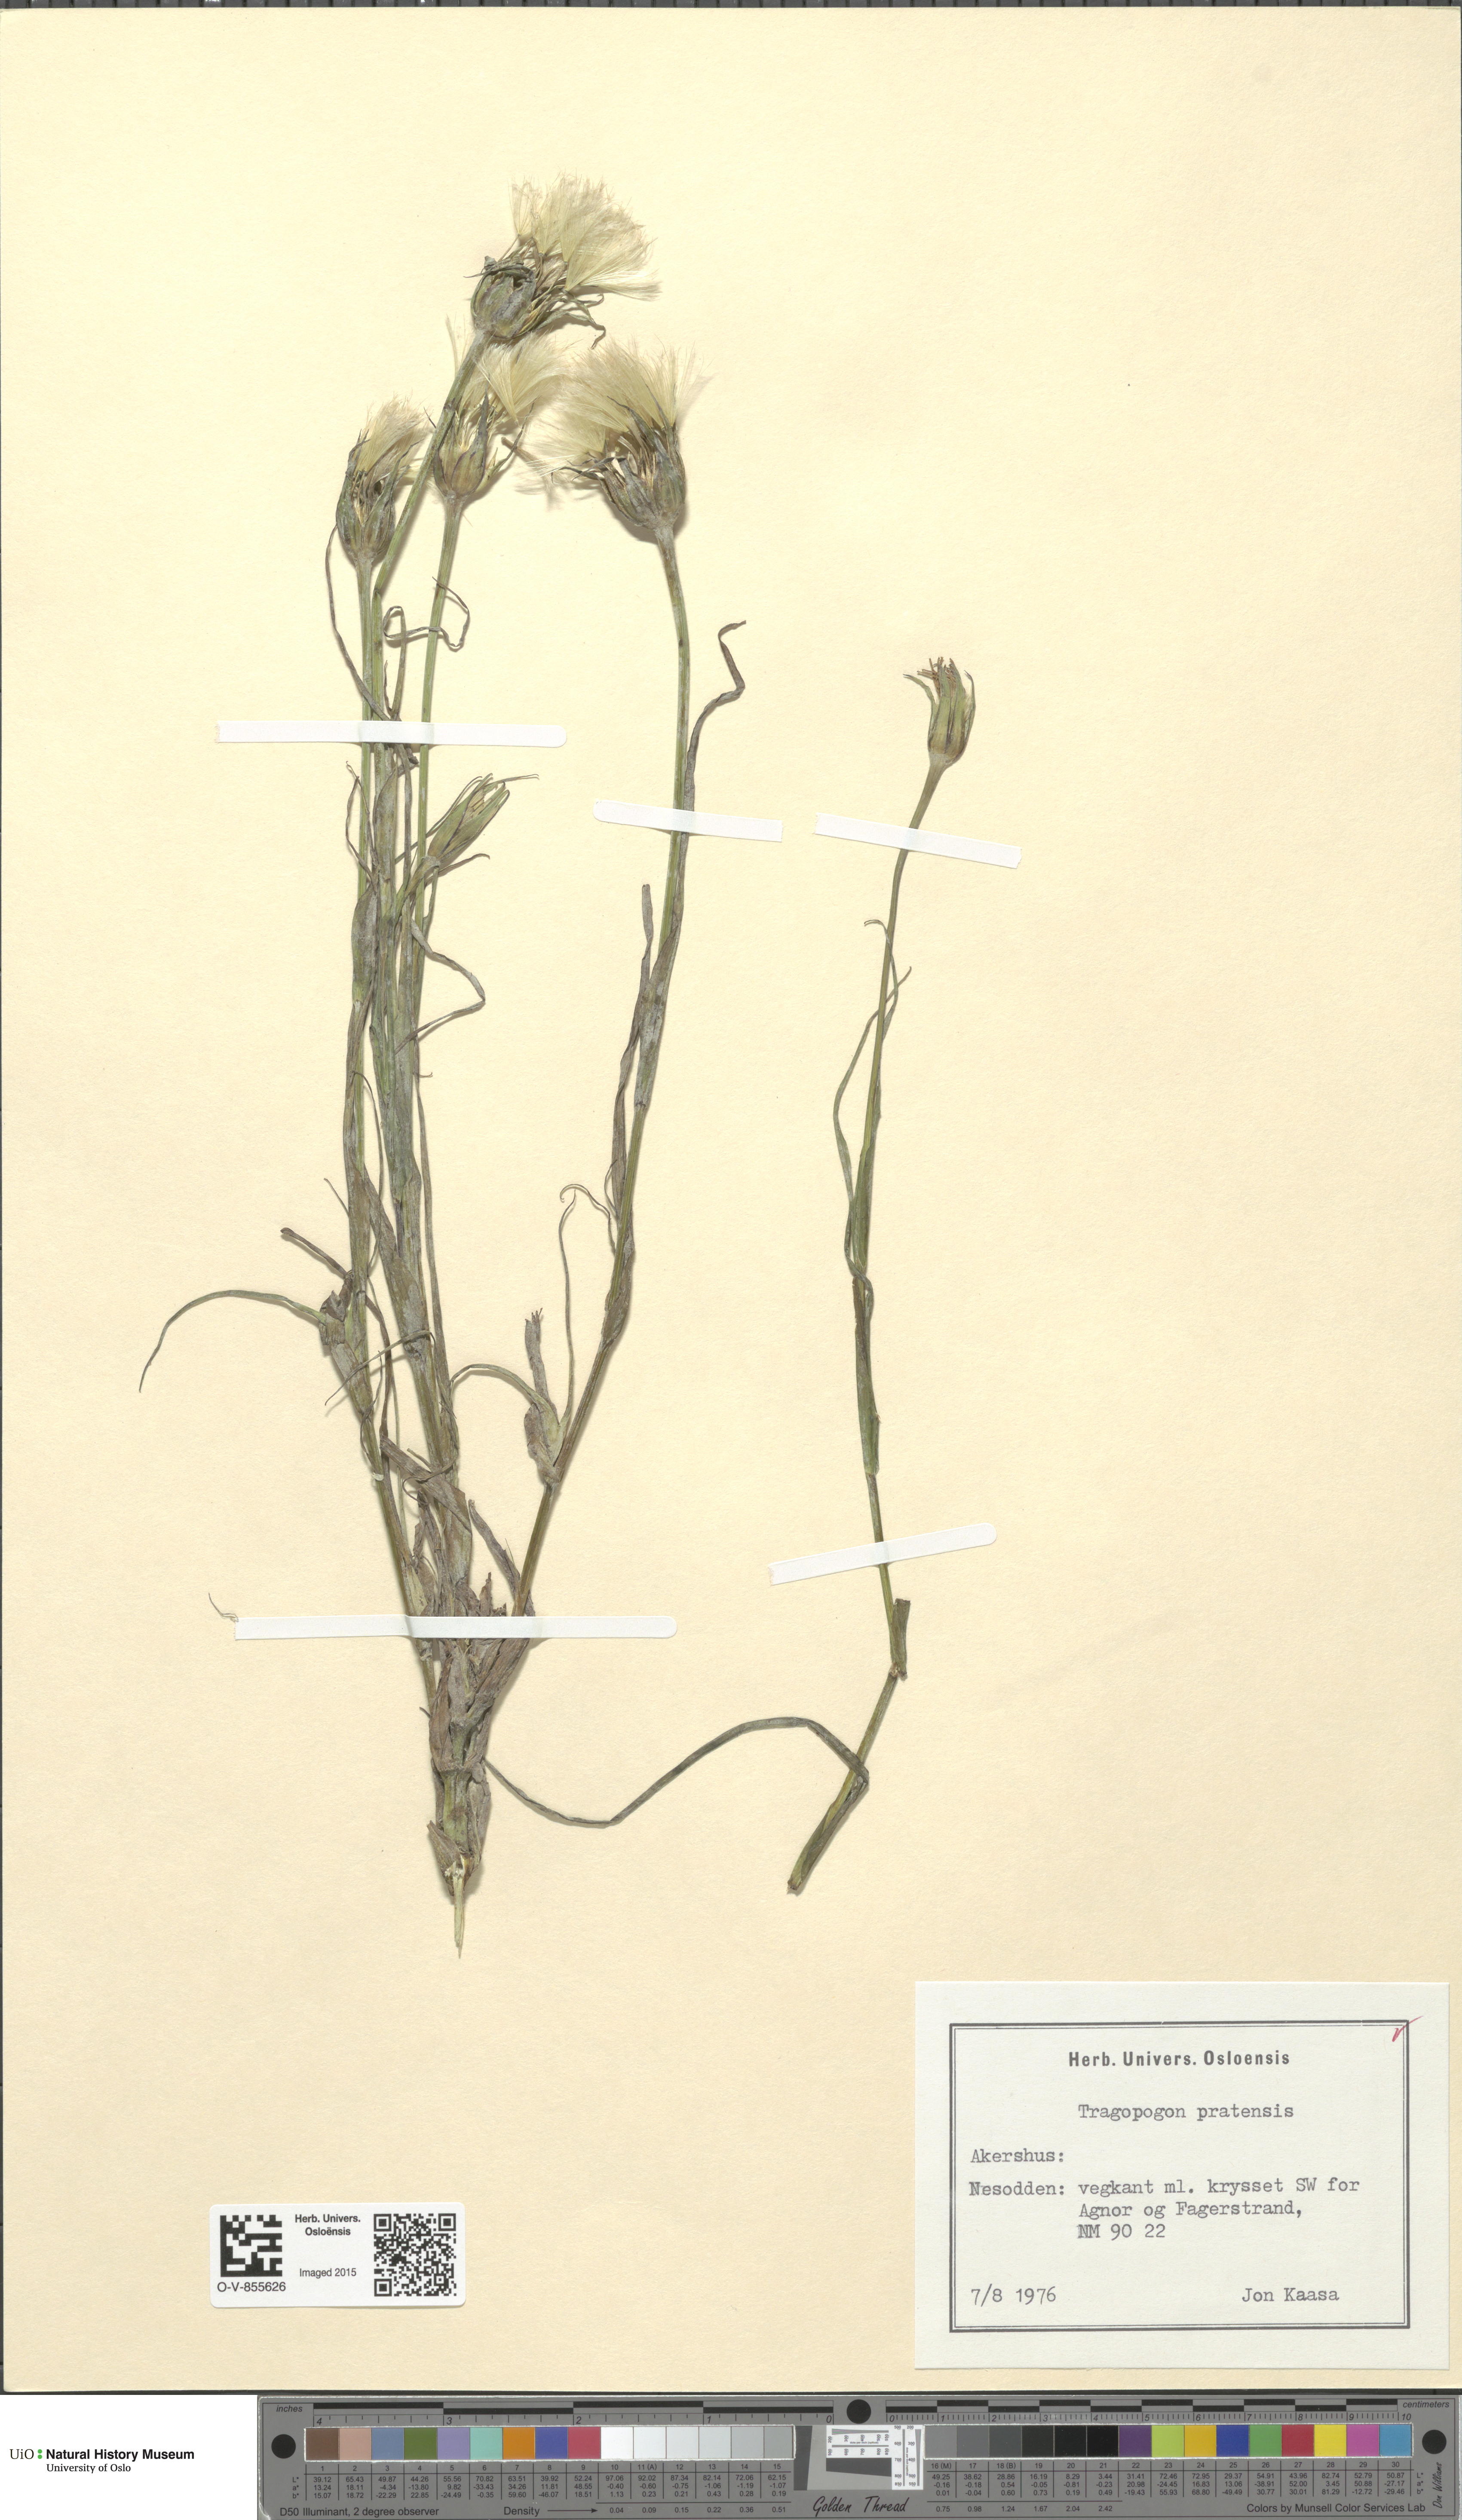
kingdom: Plantae
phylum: Tracheophyta
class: Magnoliopsida
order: Asterales
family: Asteraceae
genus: Tragopogon
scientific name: Tragopogon pratensis
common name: Goat's-beard
